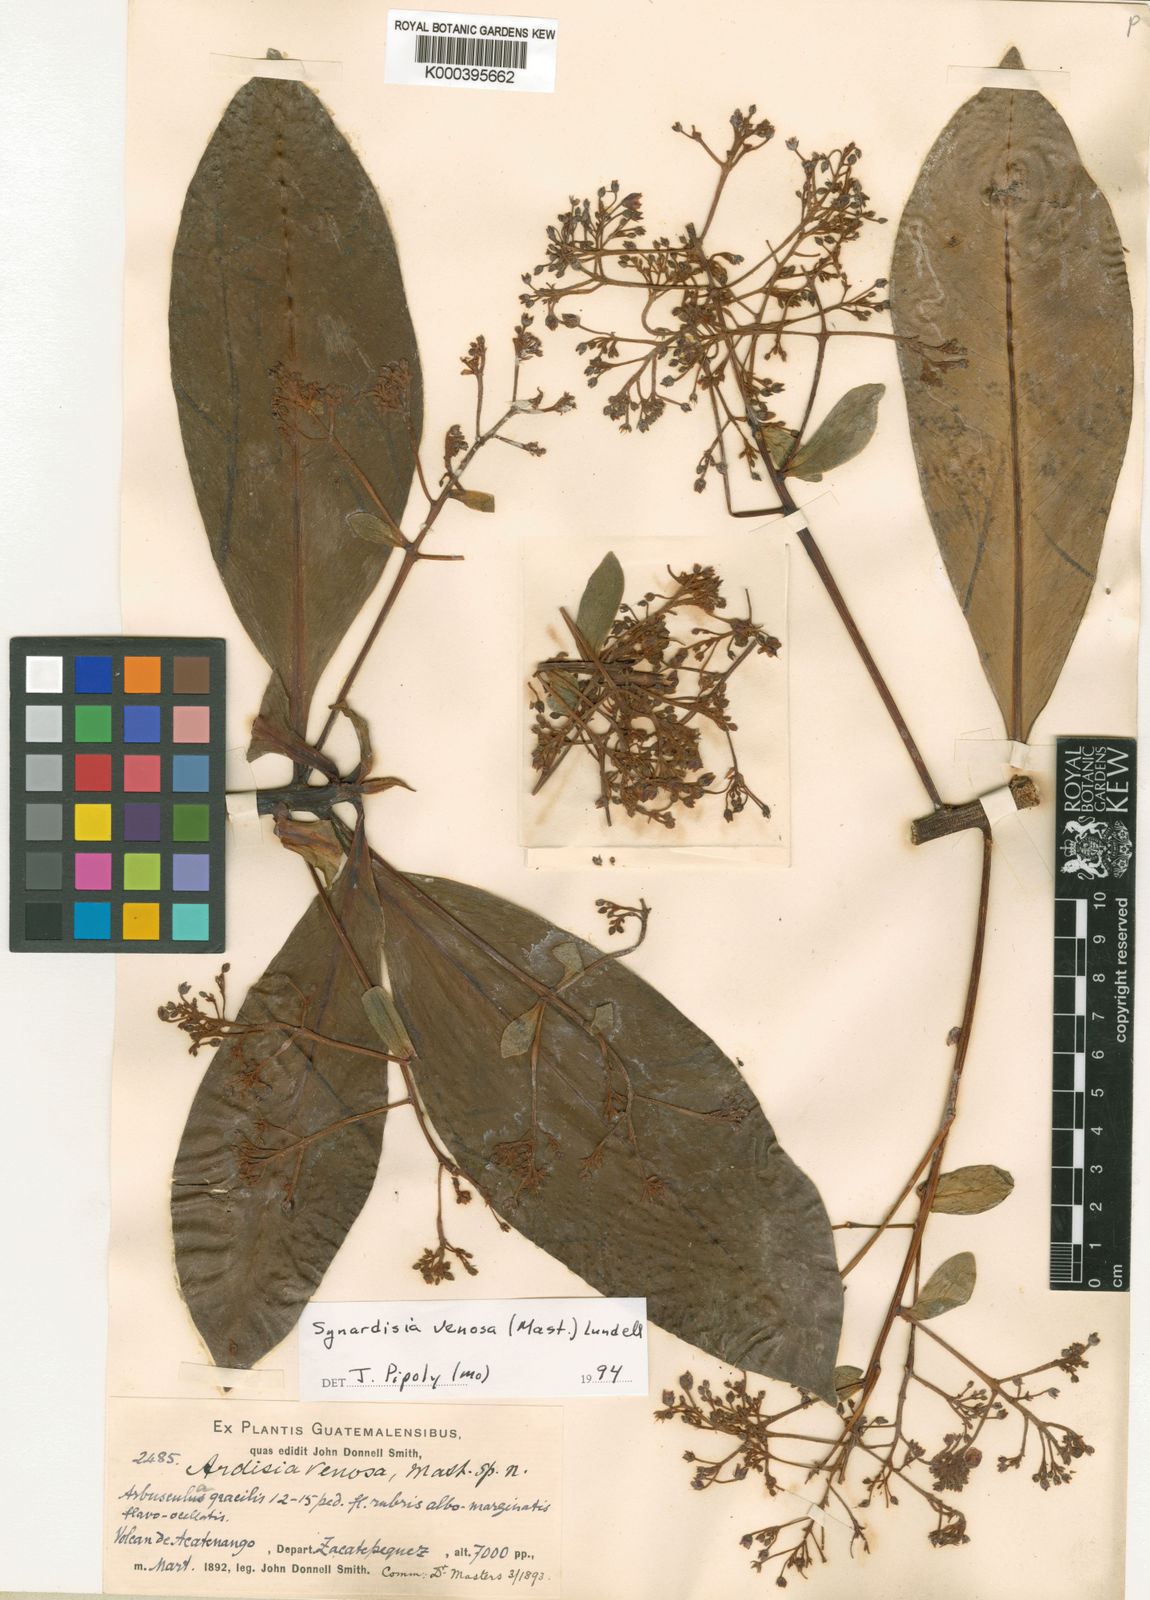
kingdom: Plantae
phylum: Tracheophyta
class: Magnoliopsida
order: Ericales
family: Primulaceae
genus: Ardisia
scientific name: Ardisia
